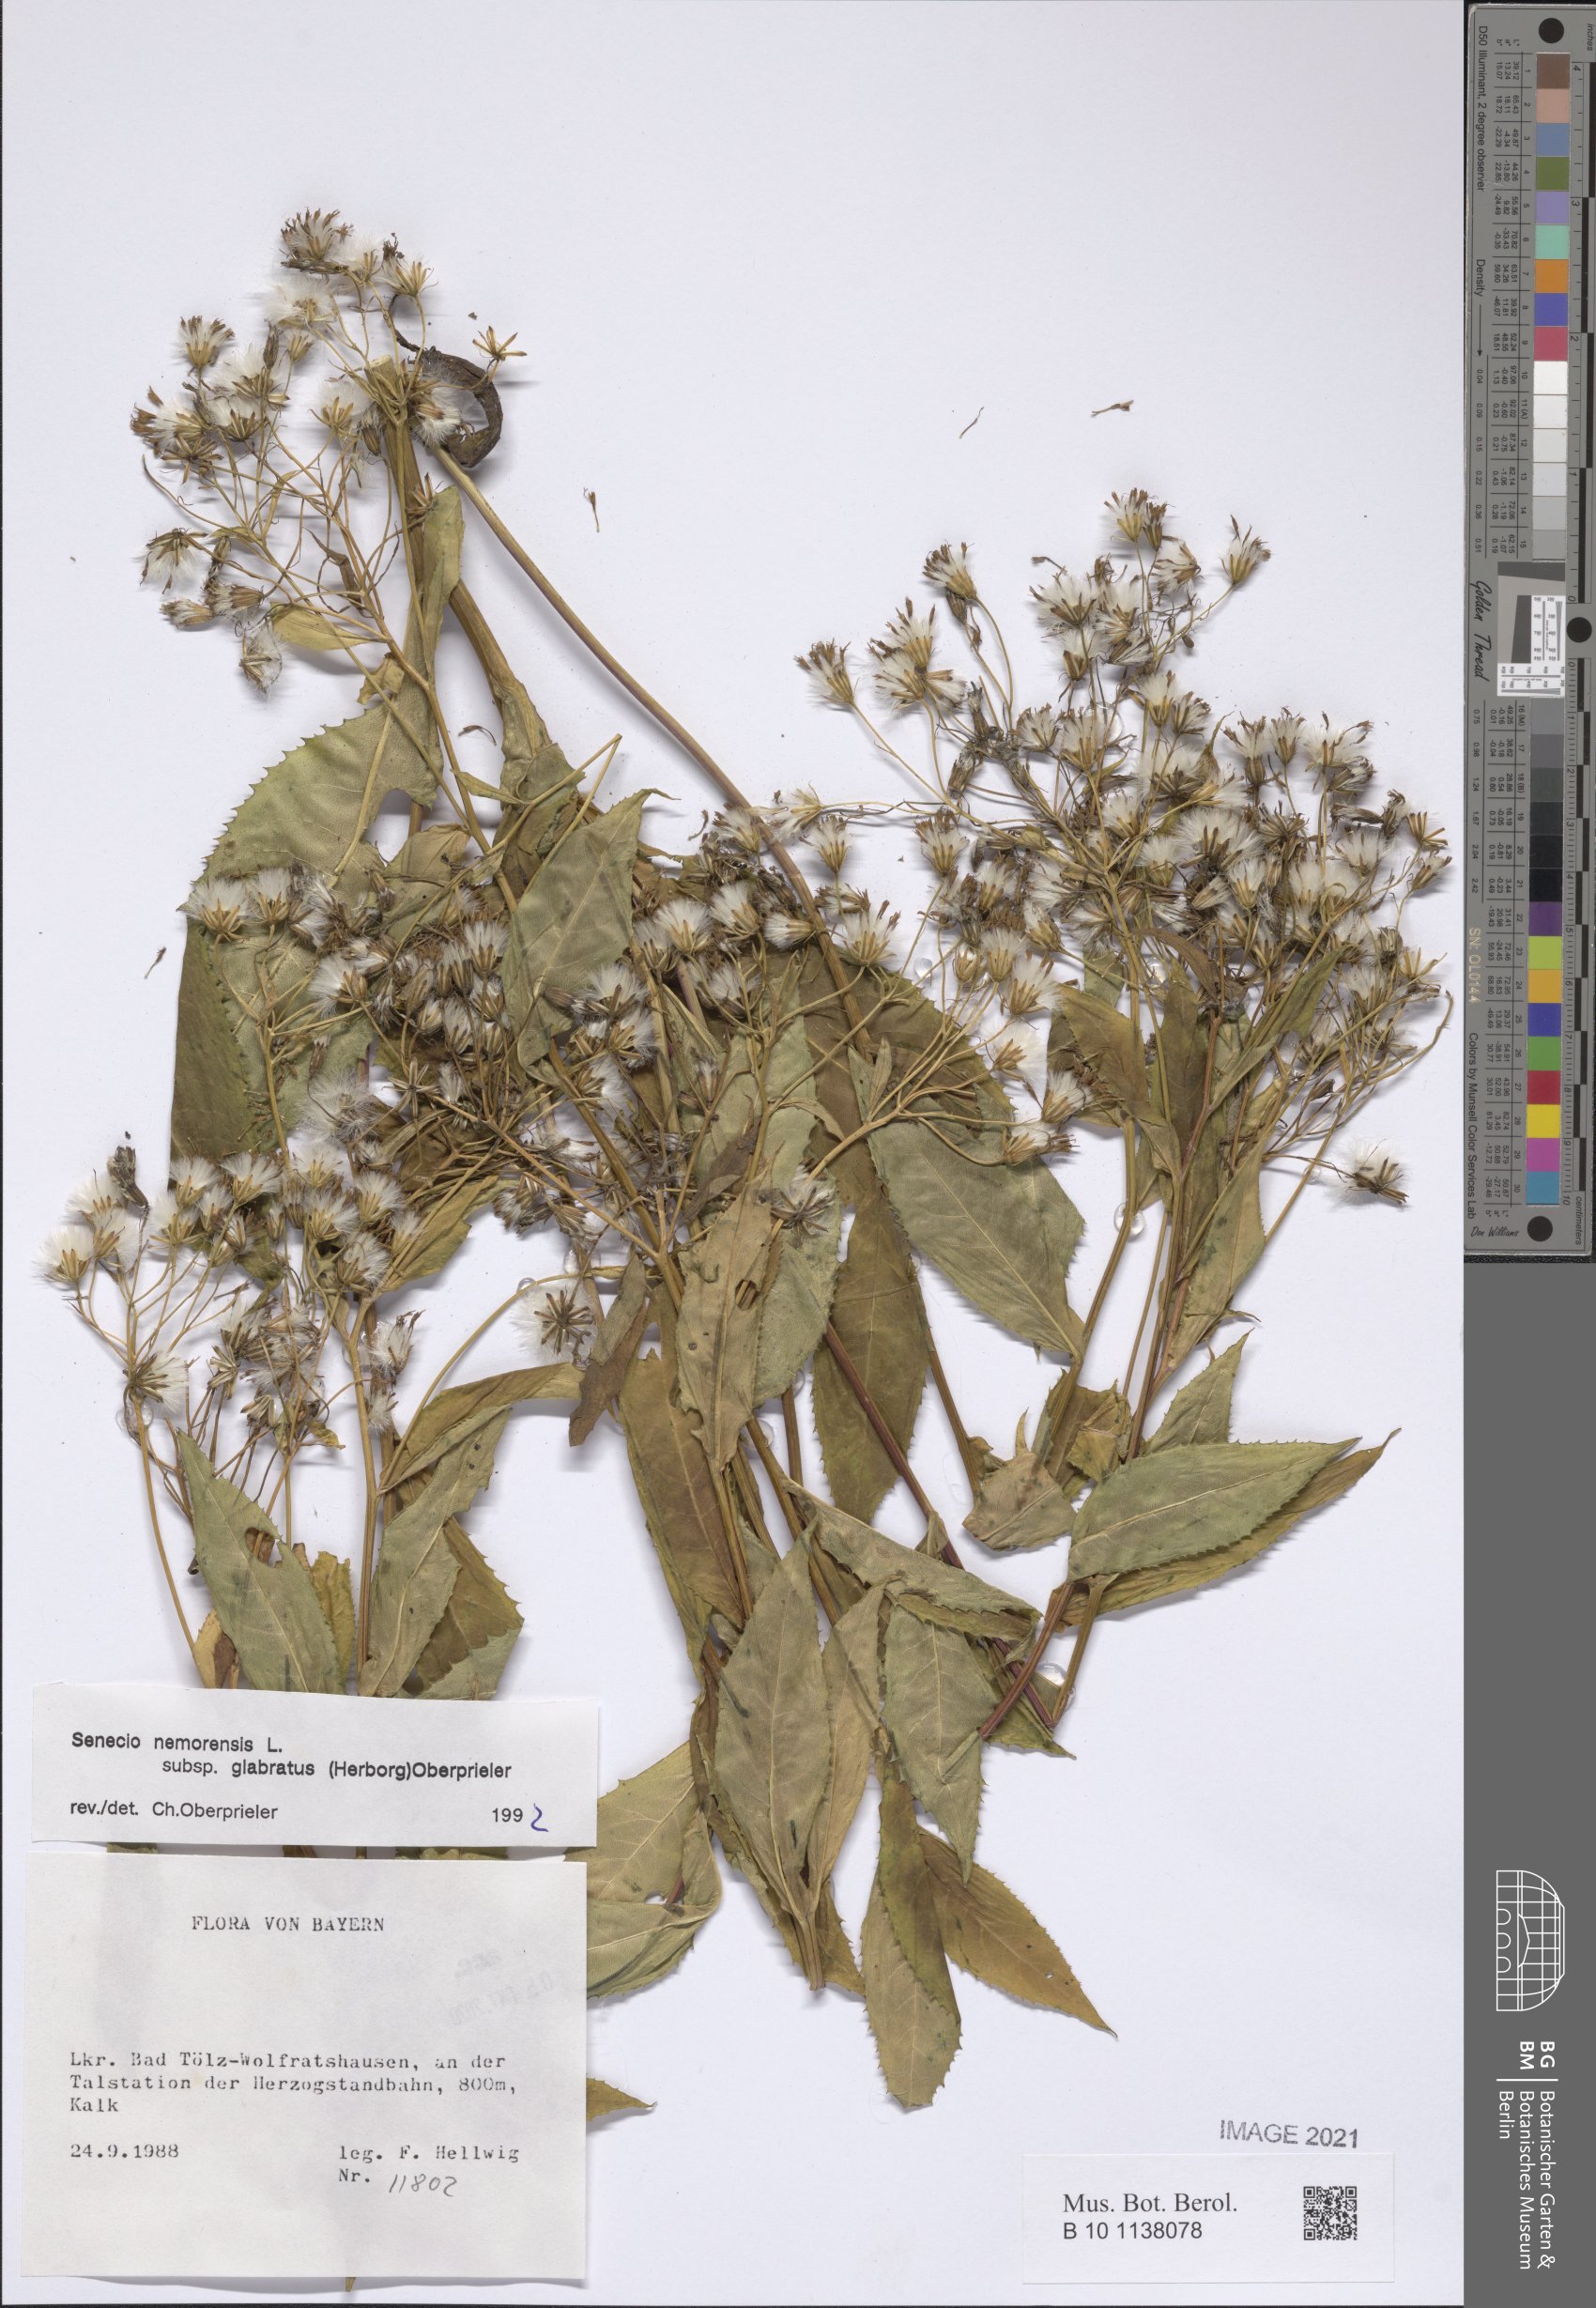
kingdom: Plantae
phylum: Tracheophyta
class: Magnoliopsida
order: Asterales
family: Asteraceae
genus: Senecio
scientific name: Senecio germanicus
